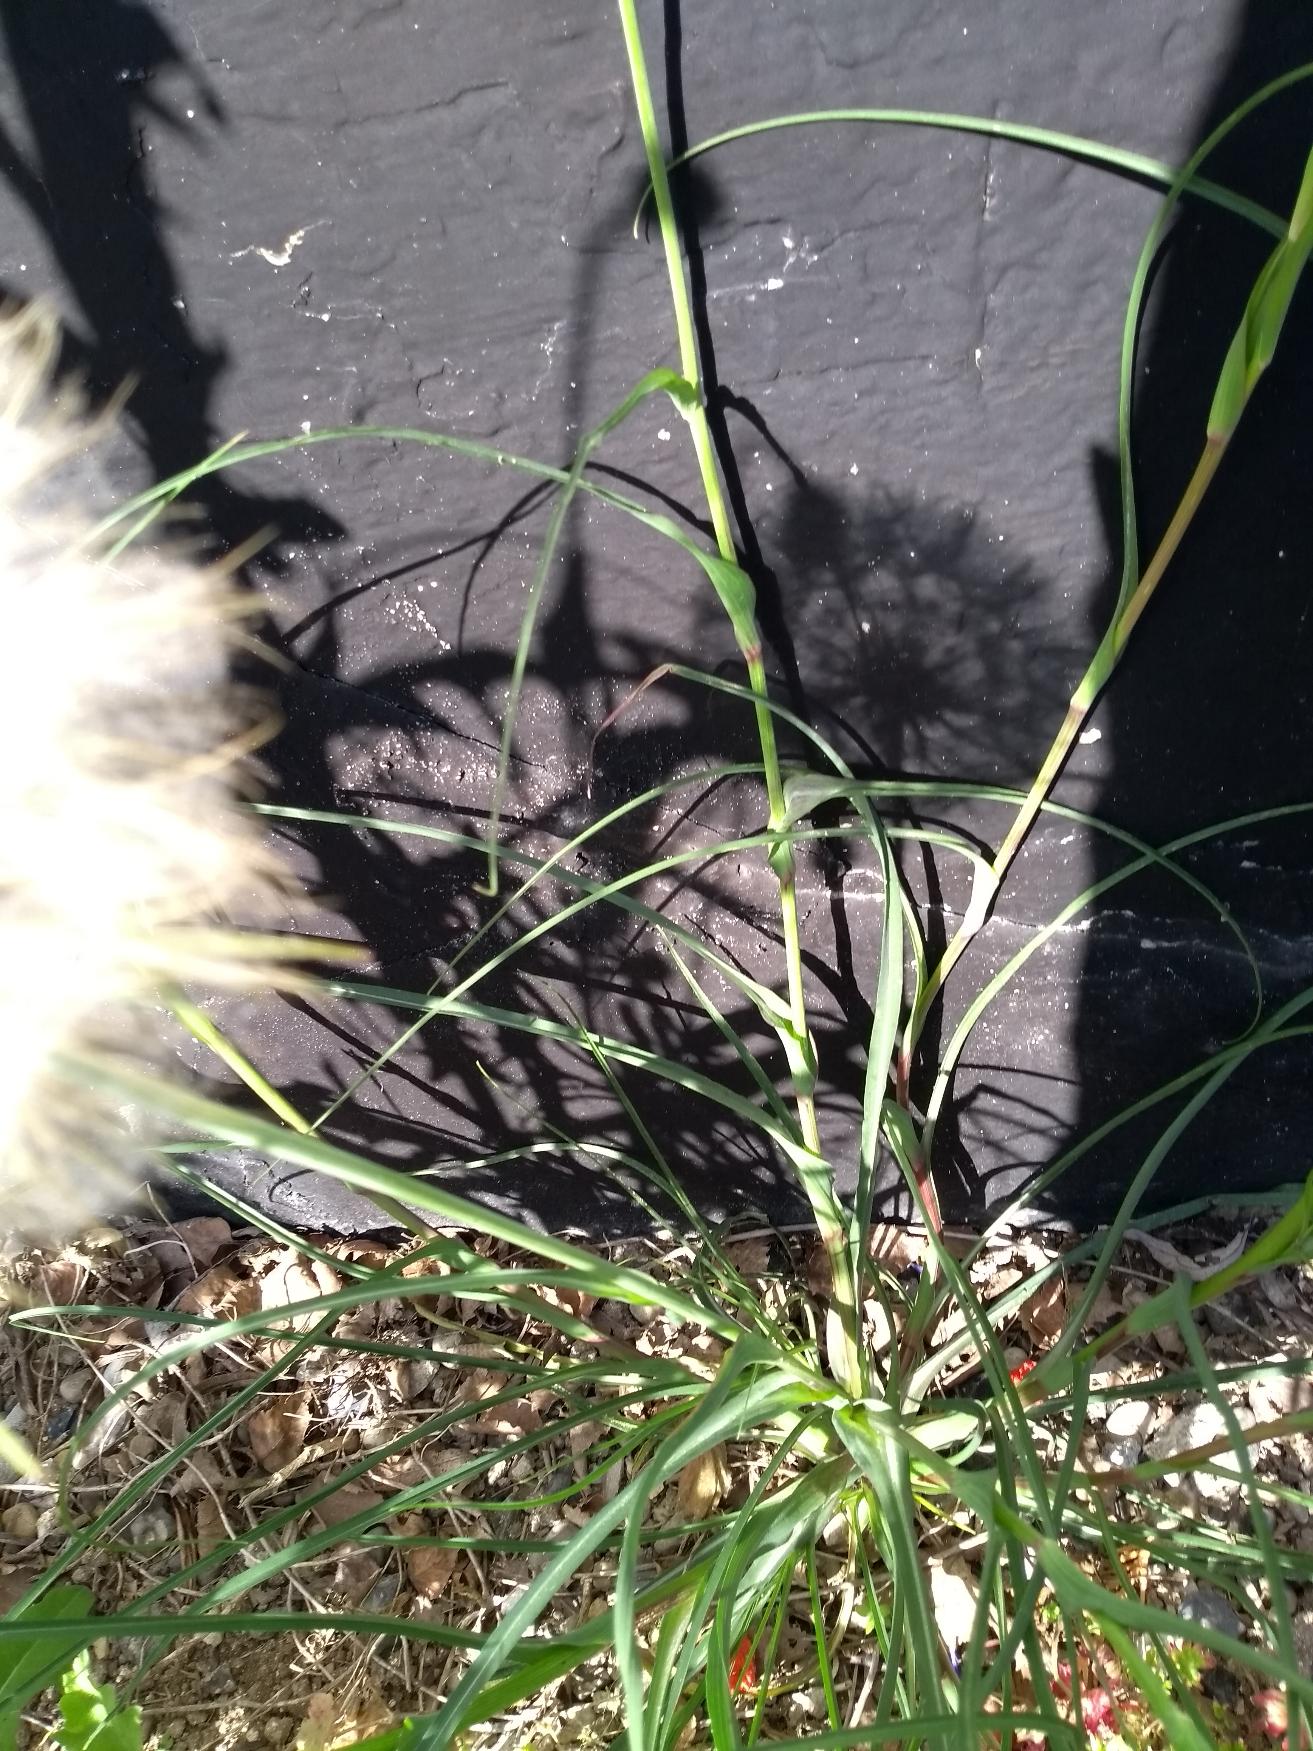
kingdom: Plantae
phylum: Tracheophyta
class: Magnoliopsida
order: Asterales
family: Asteraceae
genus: Tragopogon
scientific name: Tragopogon pratensis
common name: Gedeskæg
